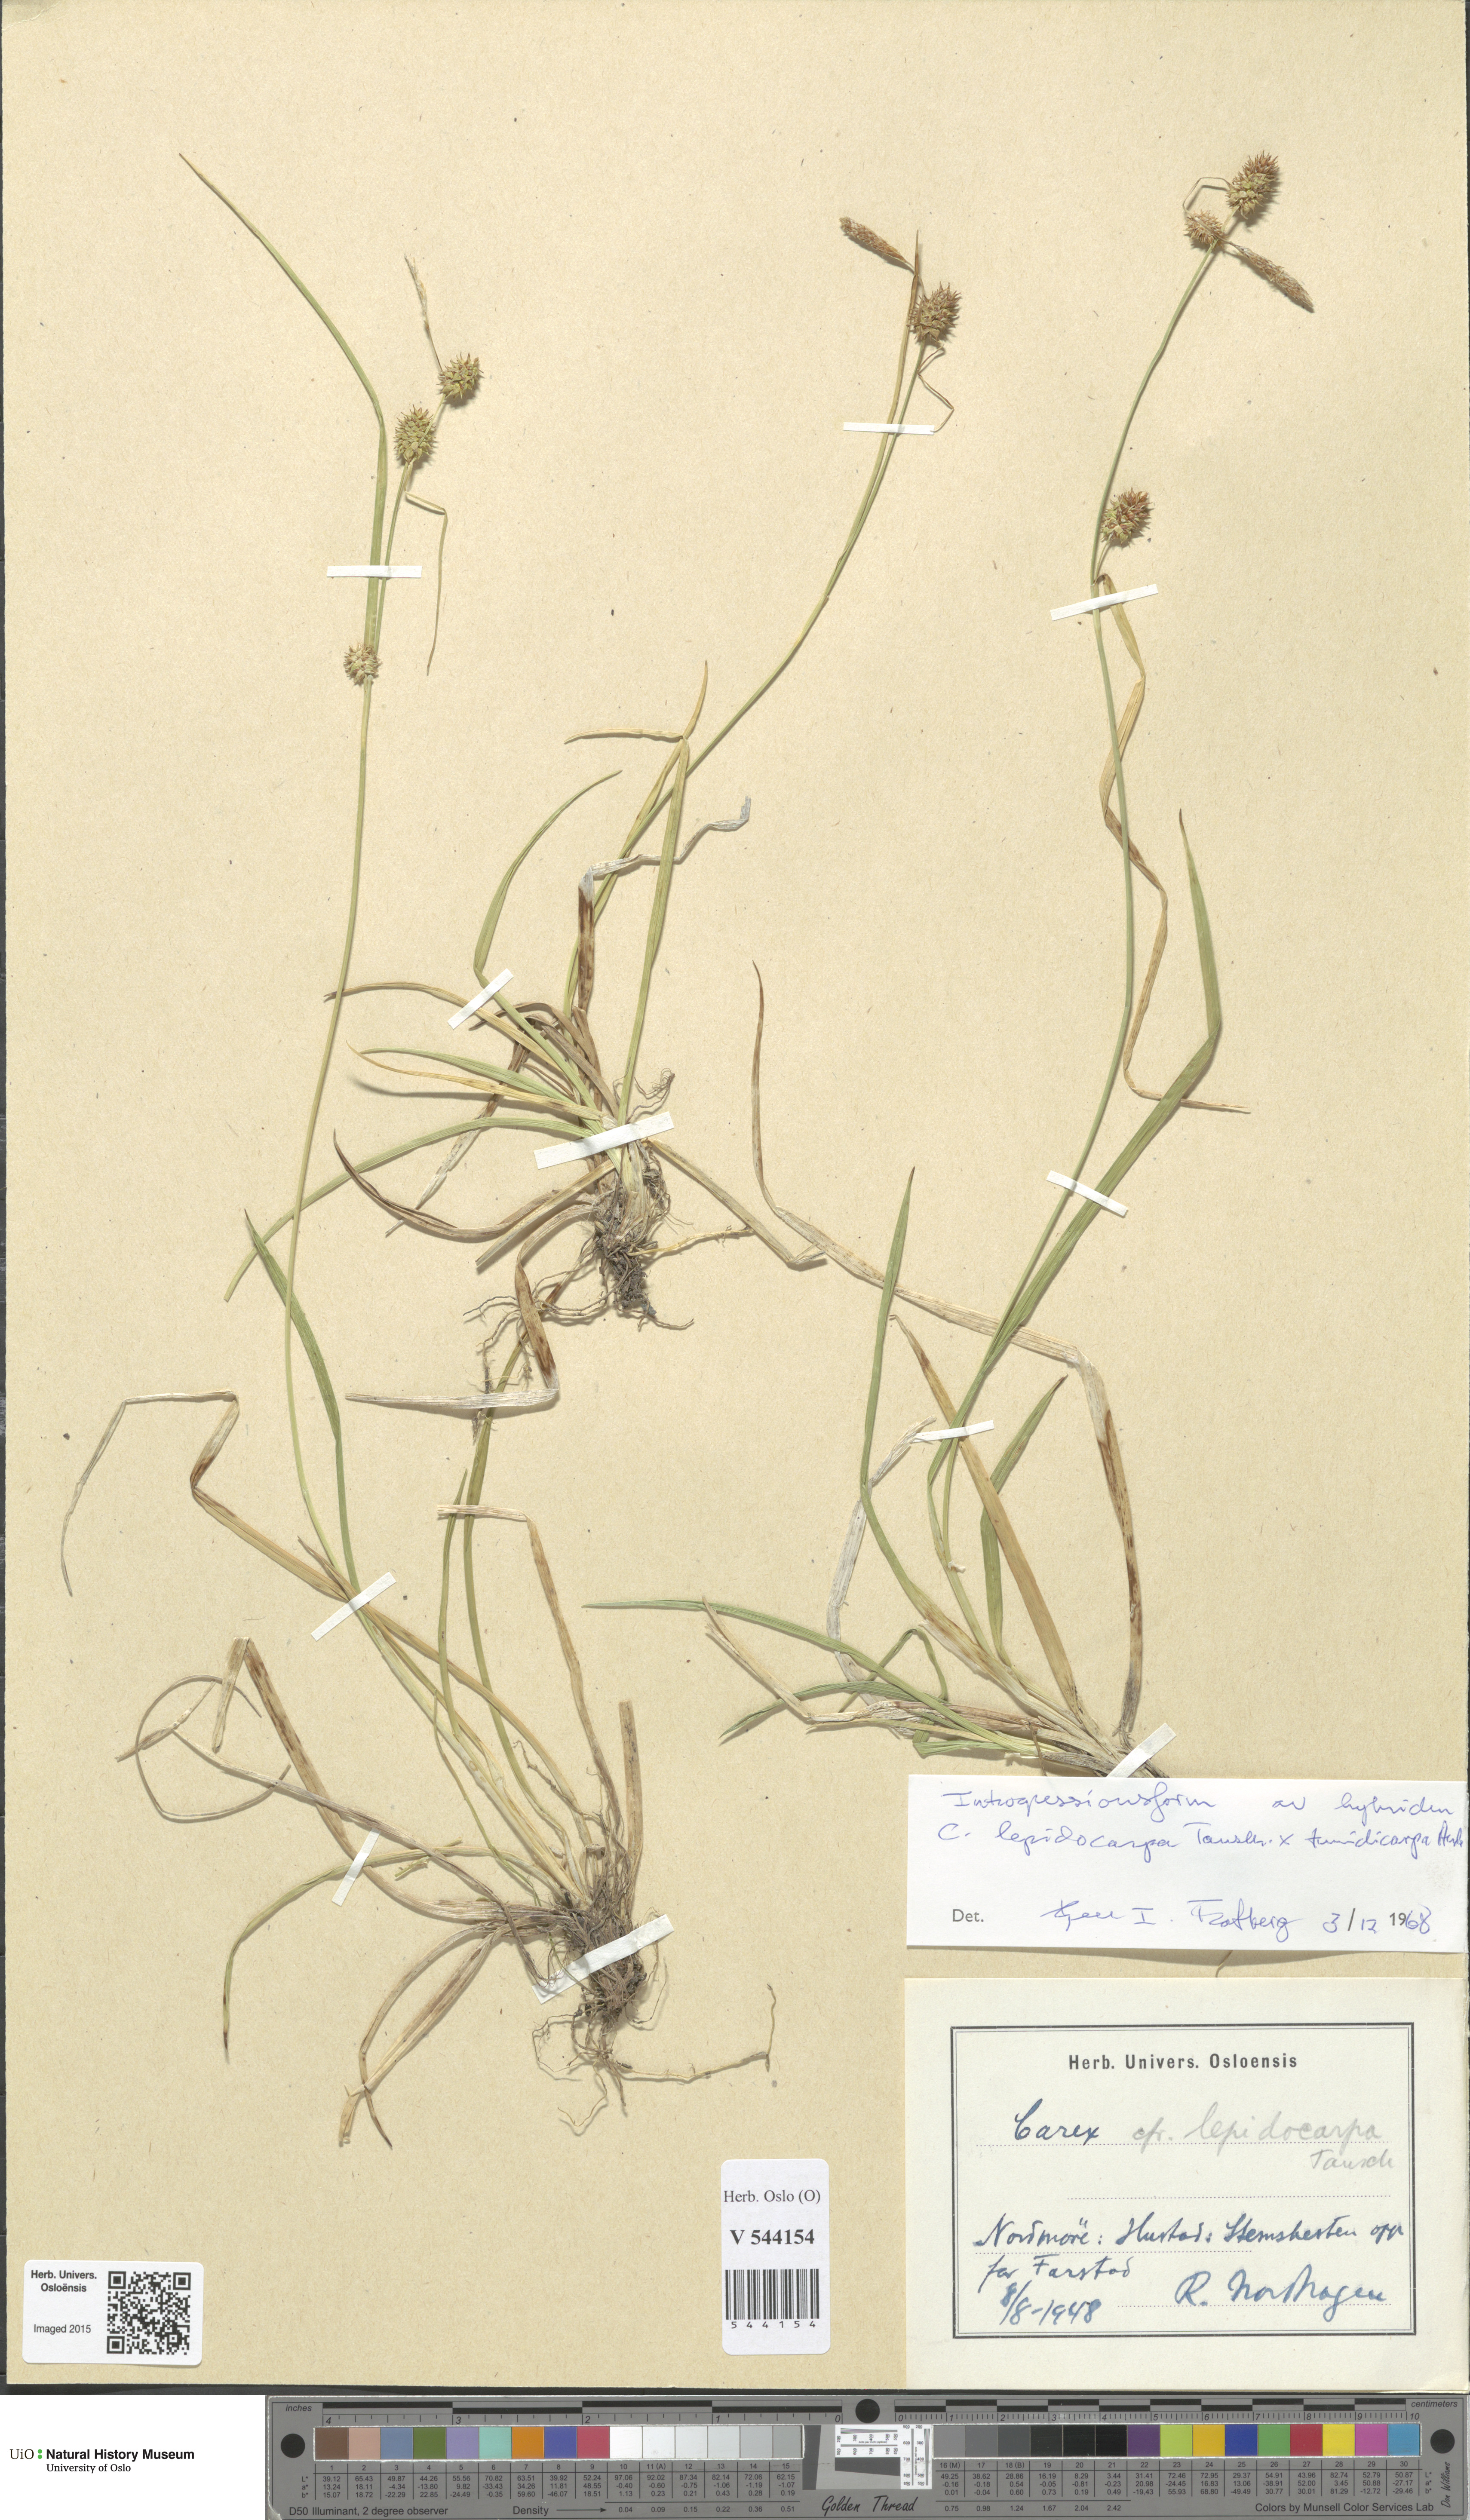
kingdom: Plantae
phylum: Tracheophyta
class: Liliopsida
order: Poales
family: Cyperaceae
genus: Carex
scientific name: Carex
